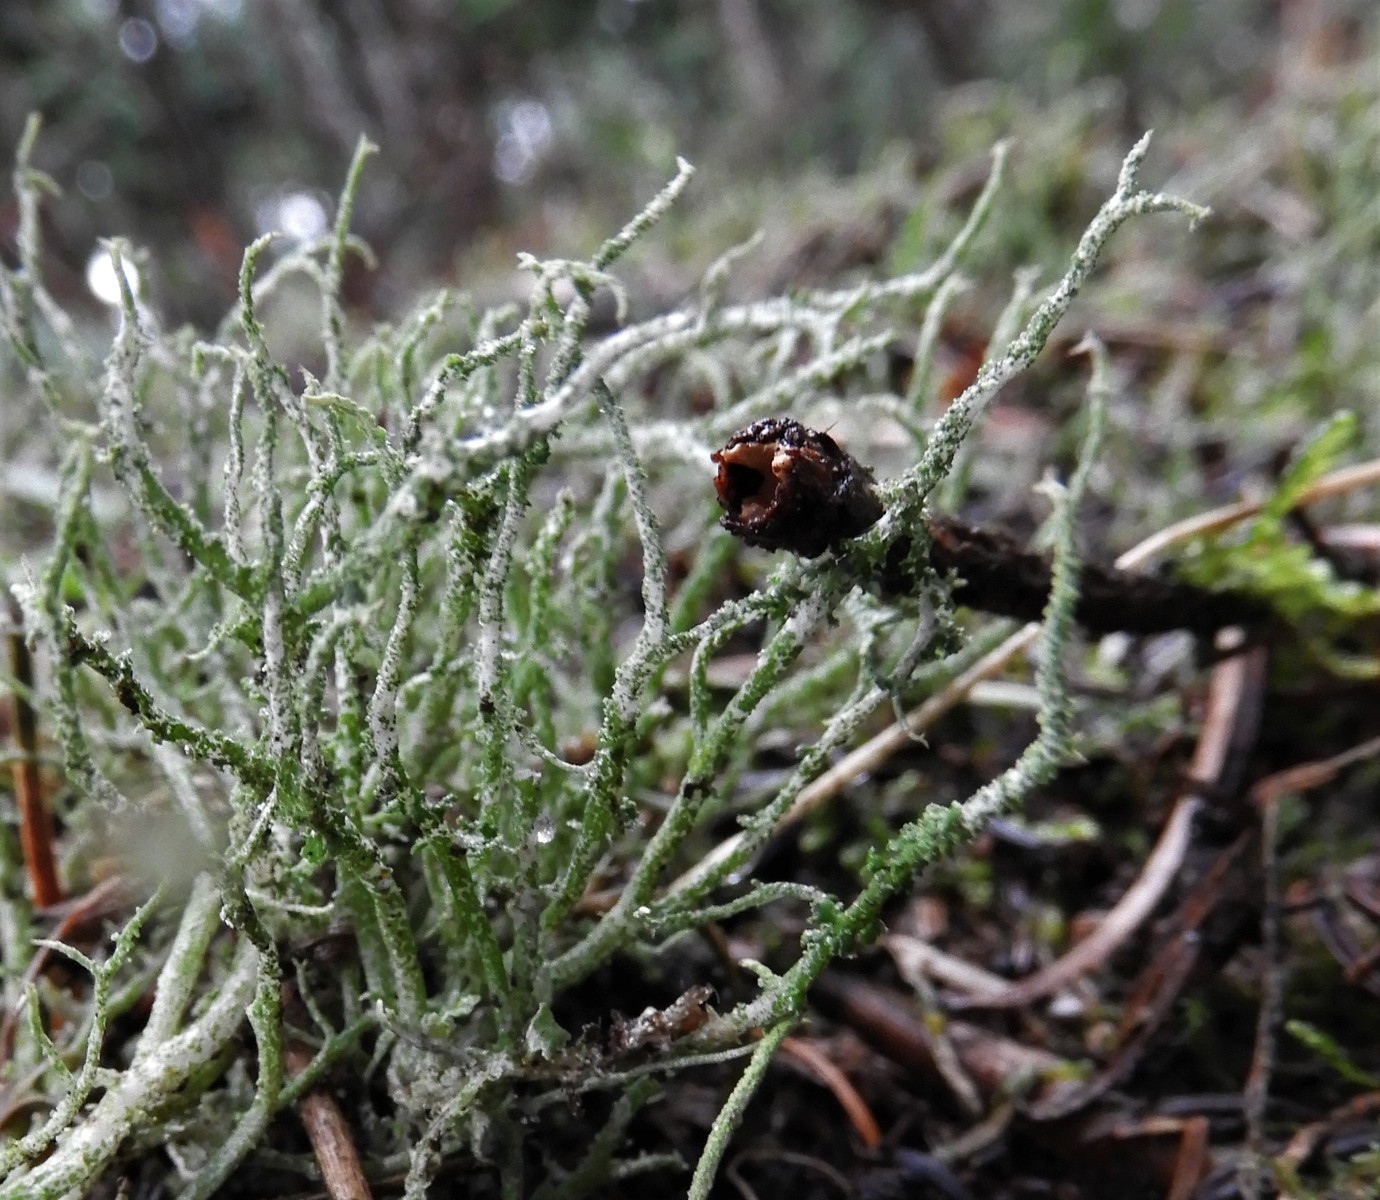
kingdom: Fungi
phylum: Ascomycota
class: Lecanoromycetes
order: Lecanorales
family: Cladoniaceae
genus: Cladonia
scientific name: Cladonia scabriuscula
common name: ru bægerlav
